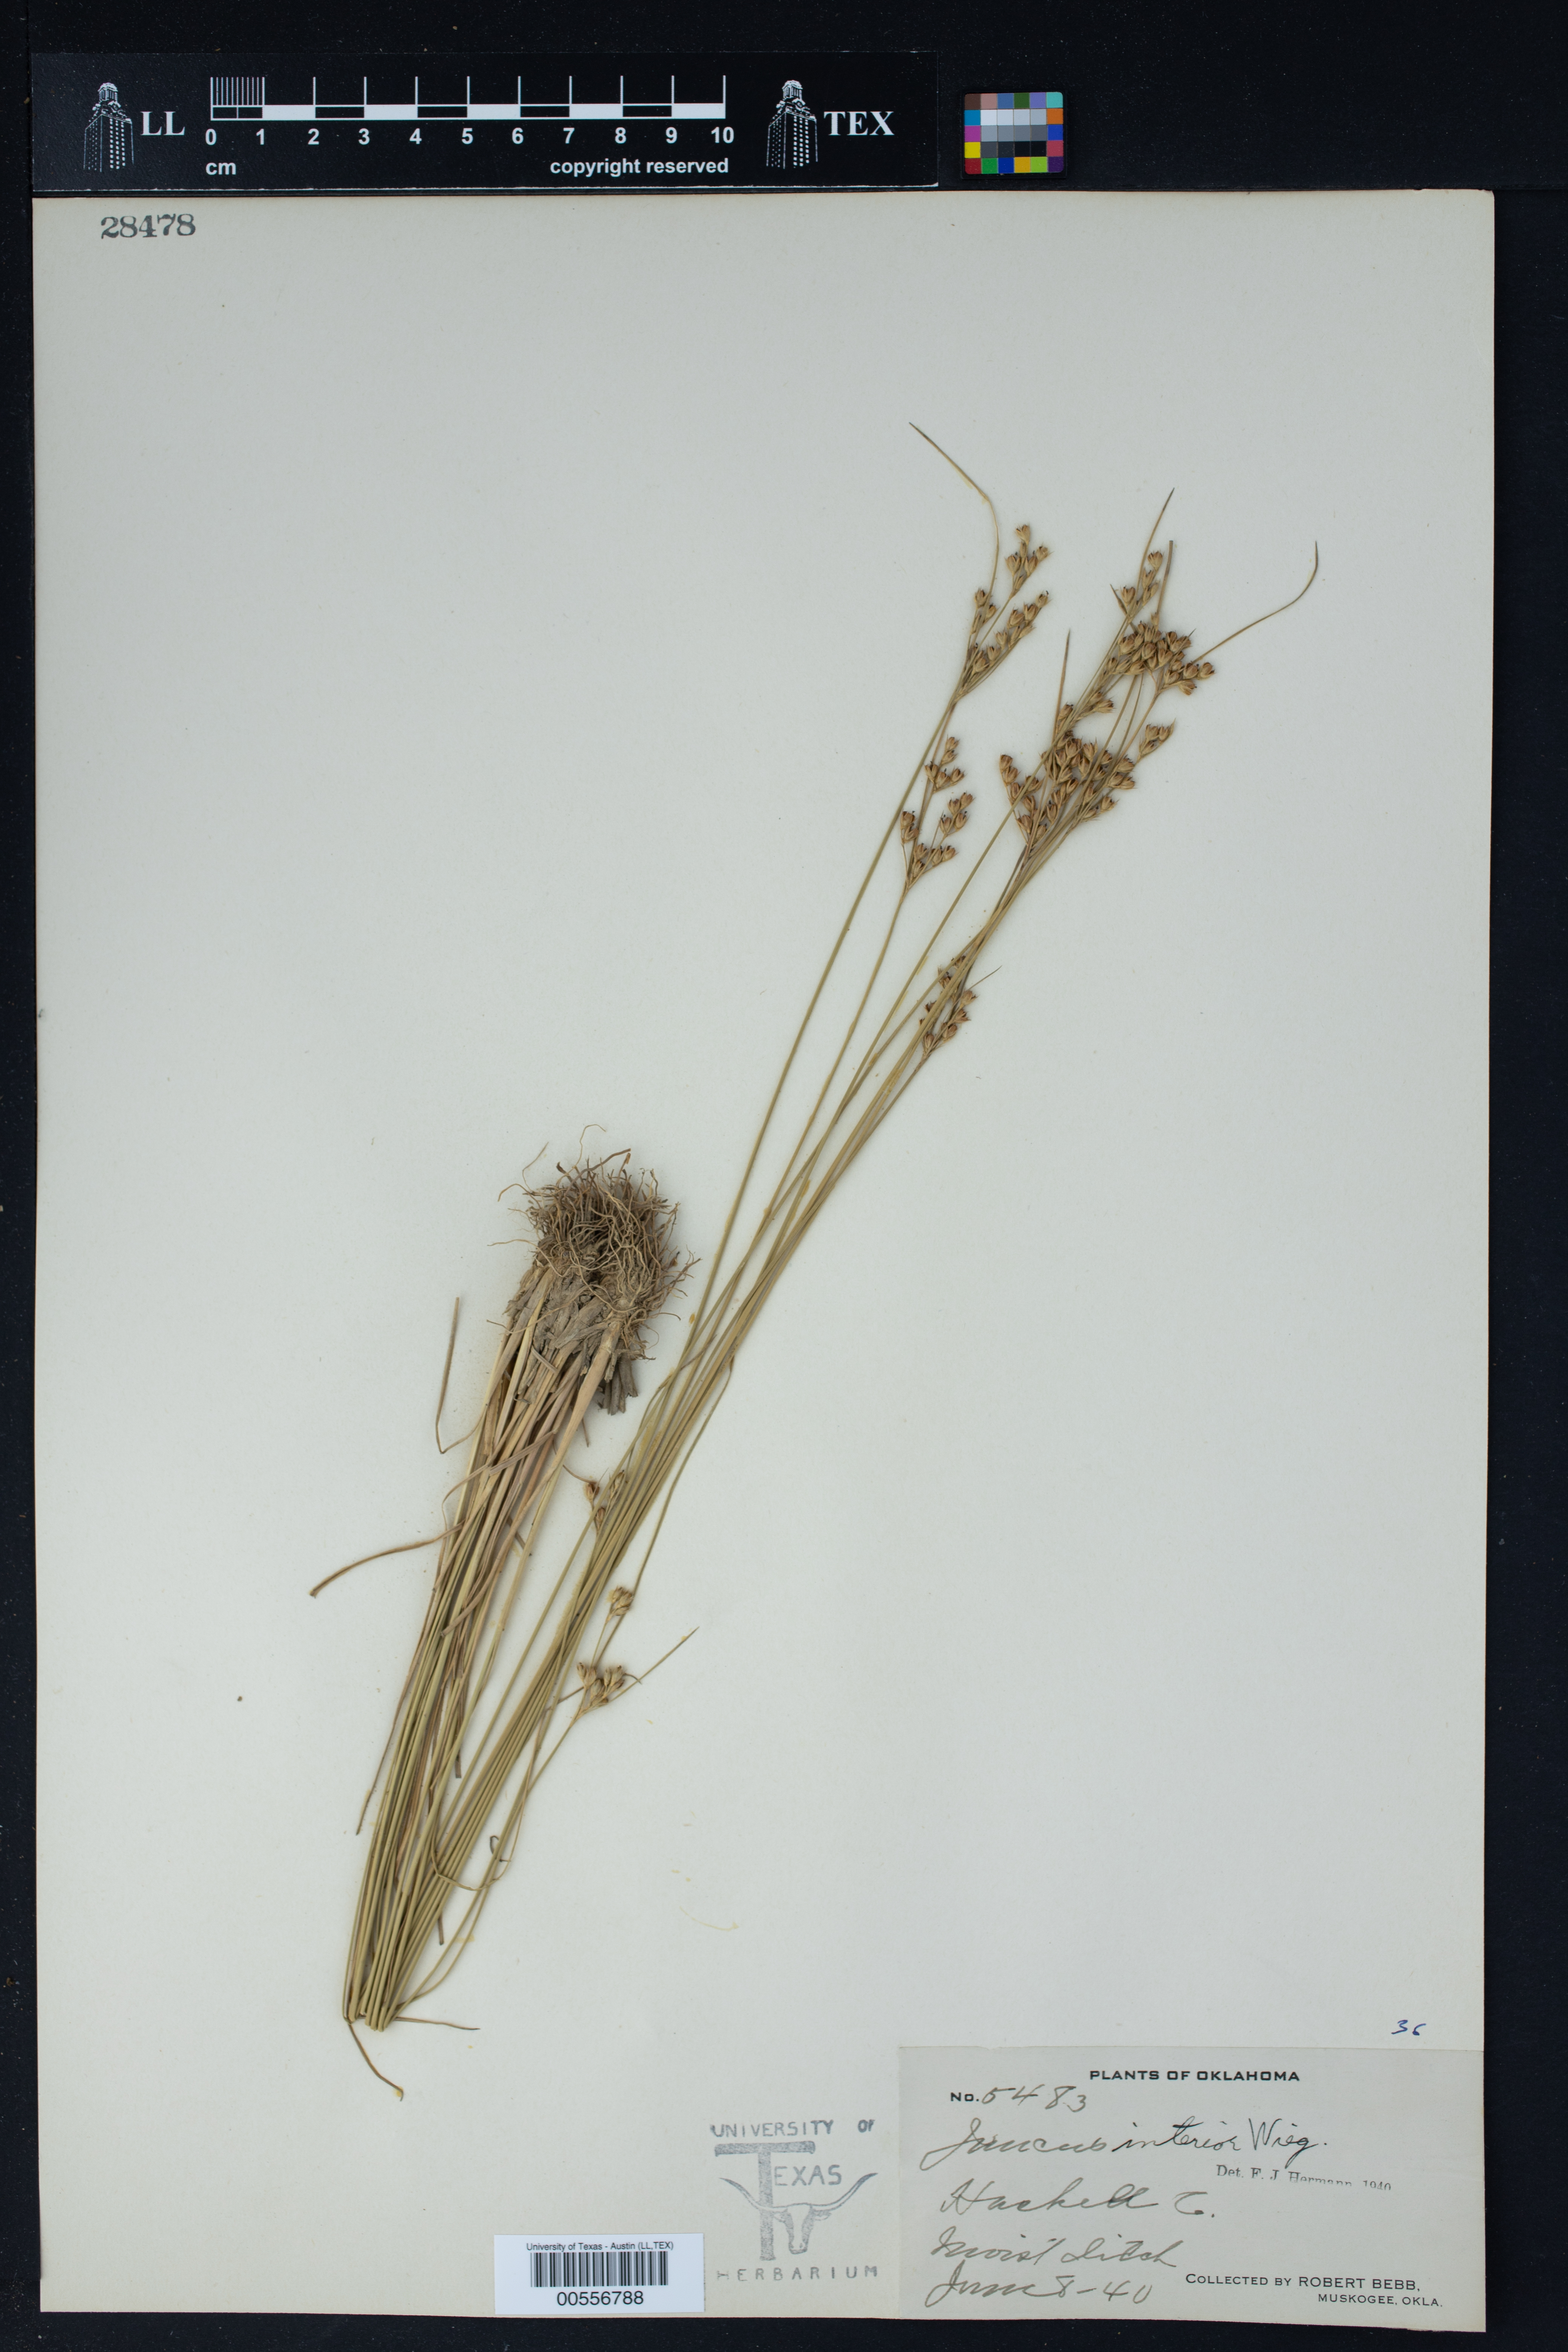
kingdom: Plantae
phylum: Tracheophyta
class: Liliopsida
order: Poales
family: Juncaceae
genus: Juncus
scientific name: Juncus interior
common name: Interior rush
